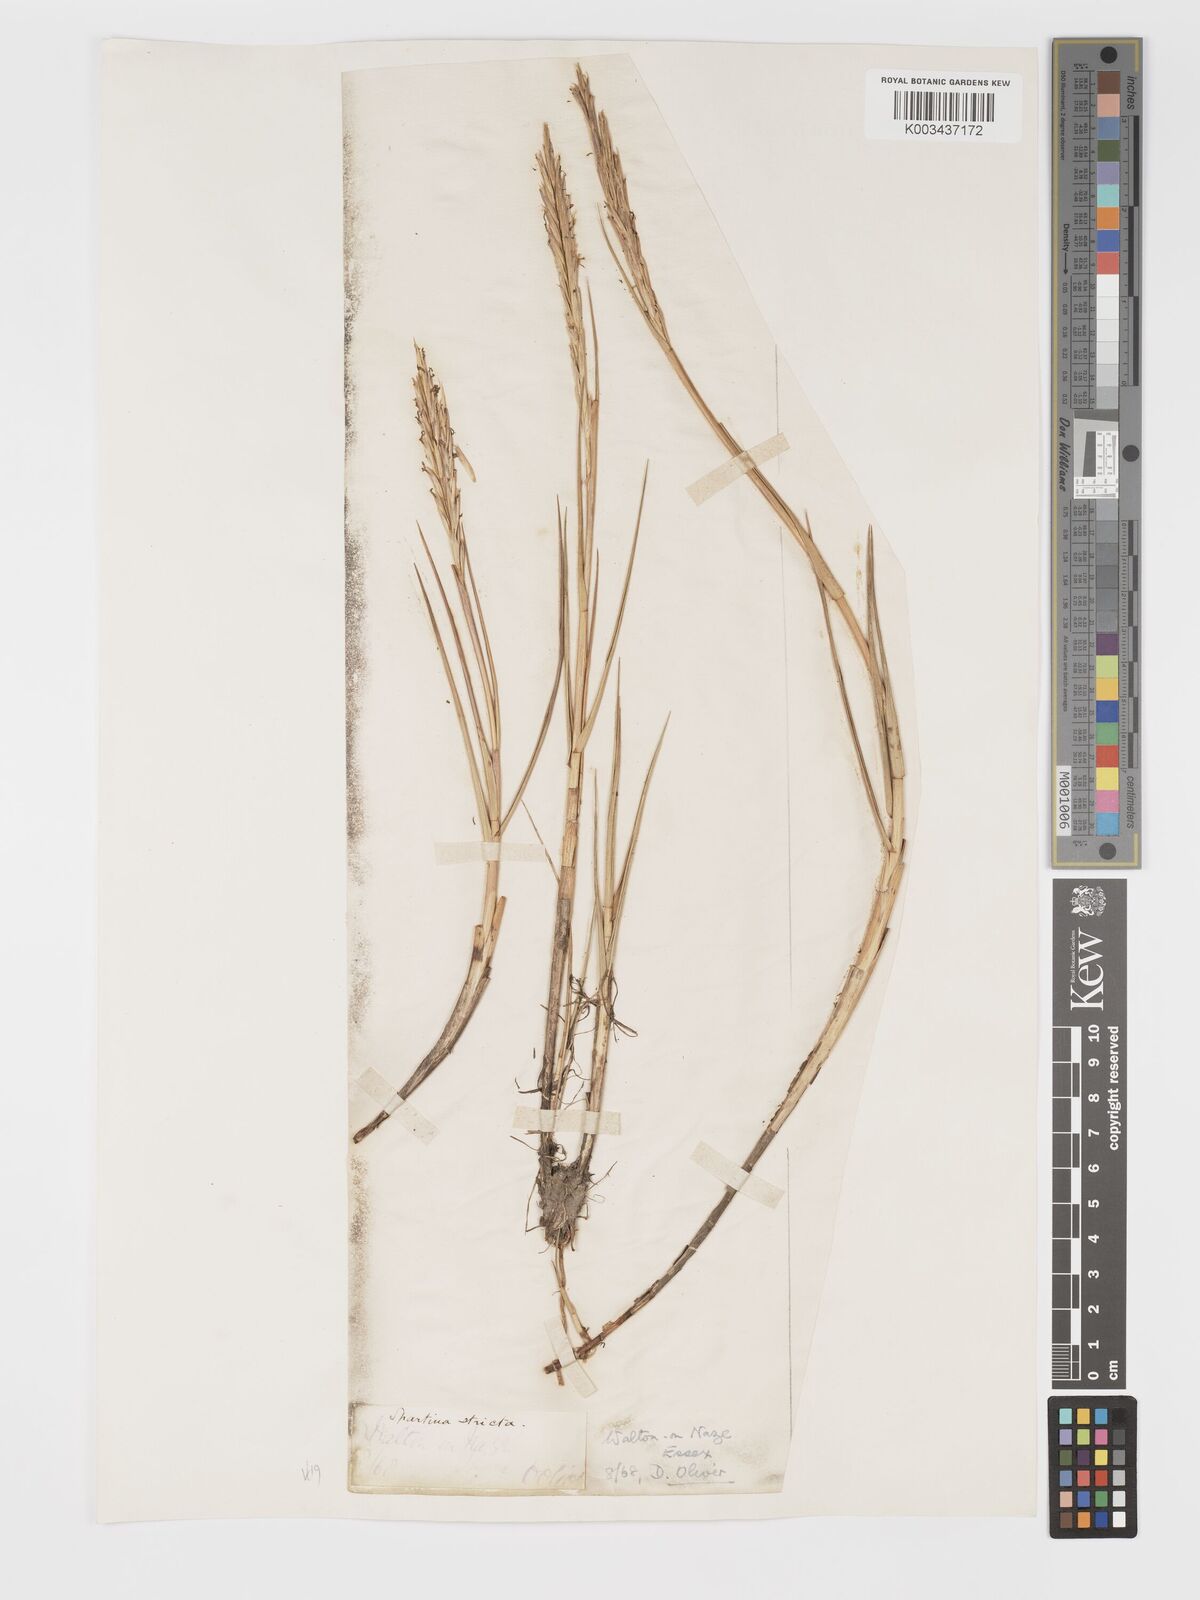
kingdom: Plantae
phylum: Tracheophyta
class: Liliopsida
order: Poales
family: Poaceae
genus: Sporobolus
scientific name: Sporobolus maritimus
